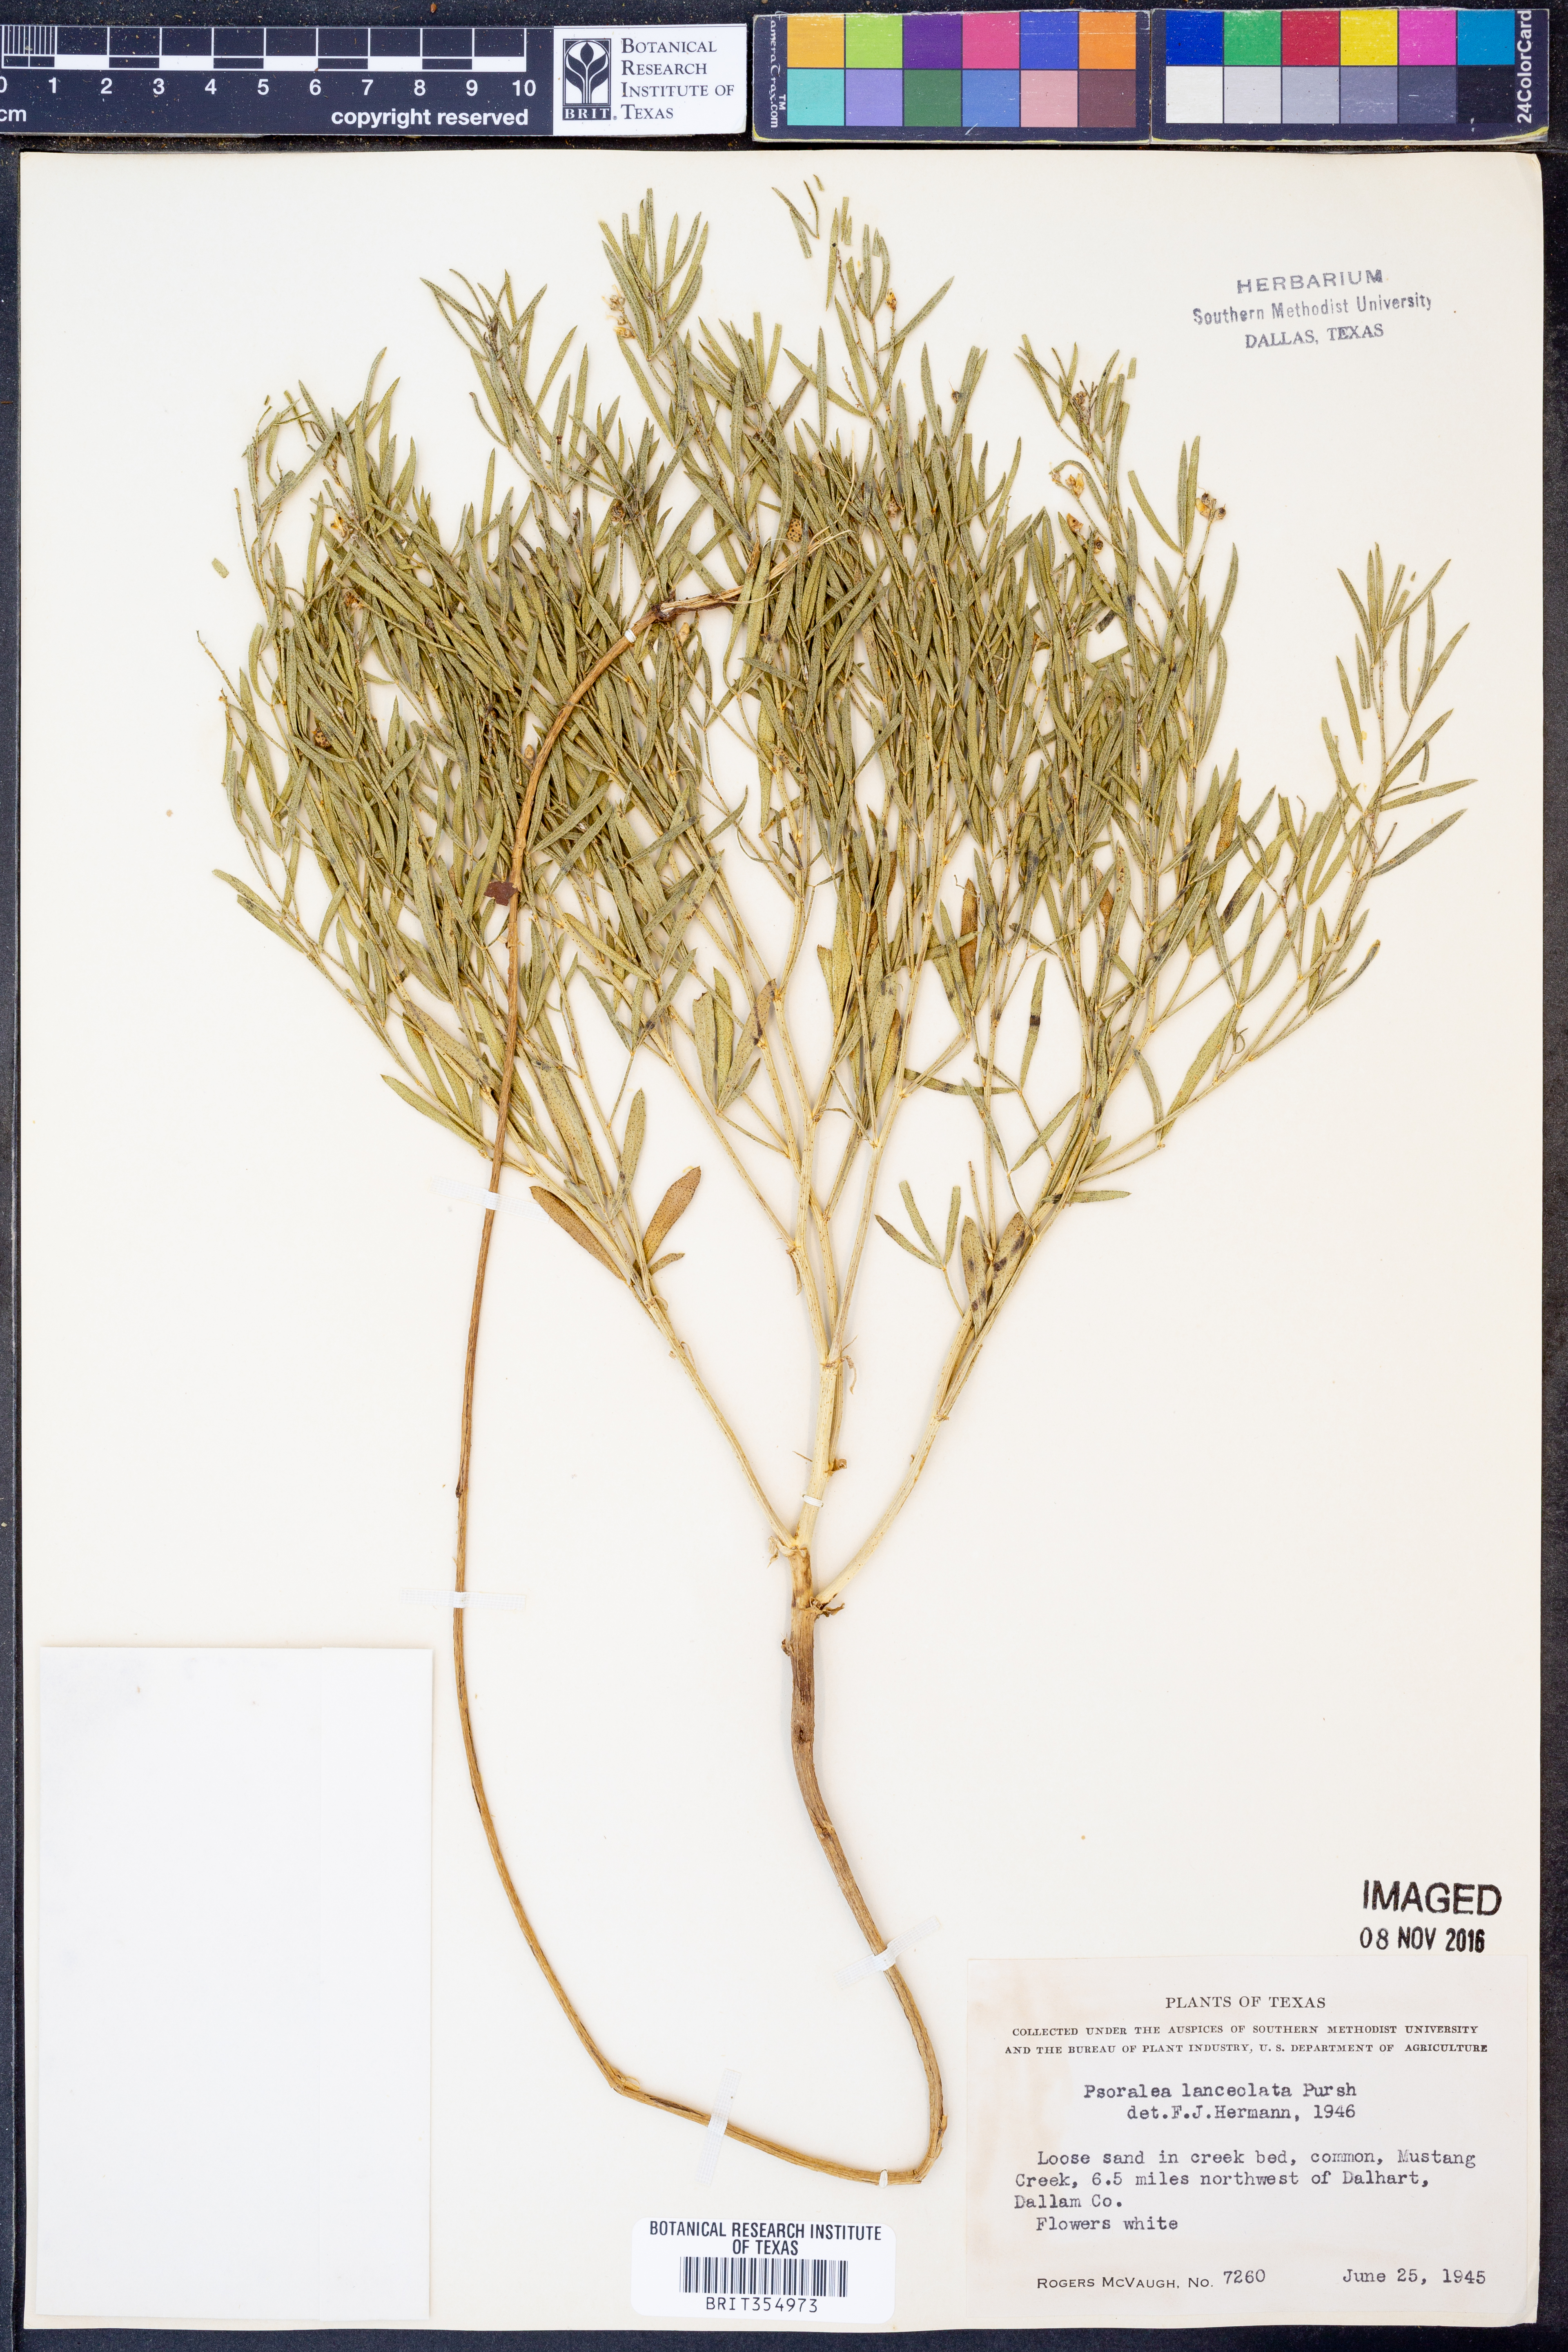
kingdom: Plantae
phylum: Tracheophyta
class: Magnoliopsida
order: Fabales
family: Fabaceae
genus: Ladeania
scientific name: Ladeania lanceolata
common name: Dune scurf-pea
